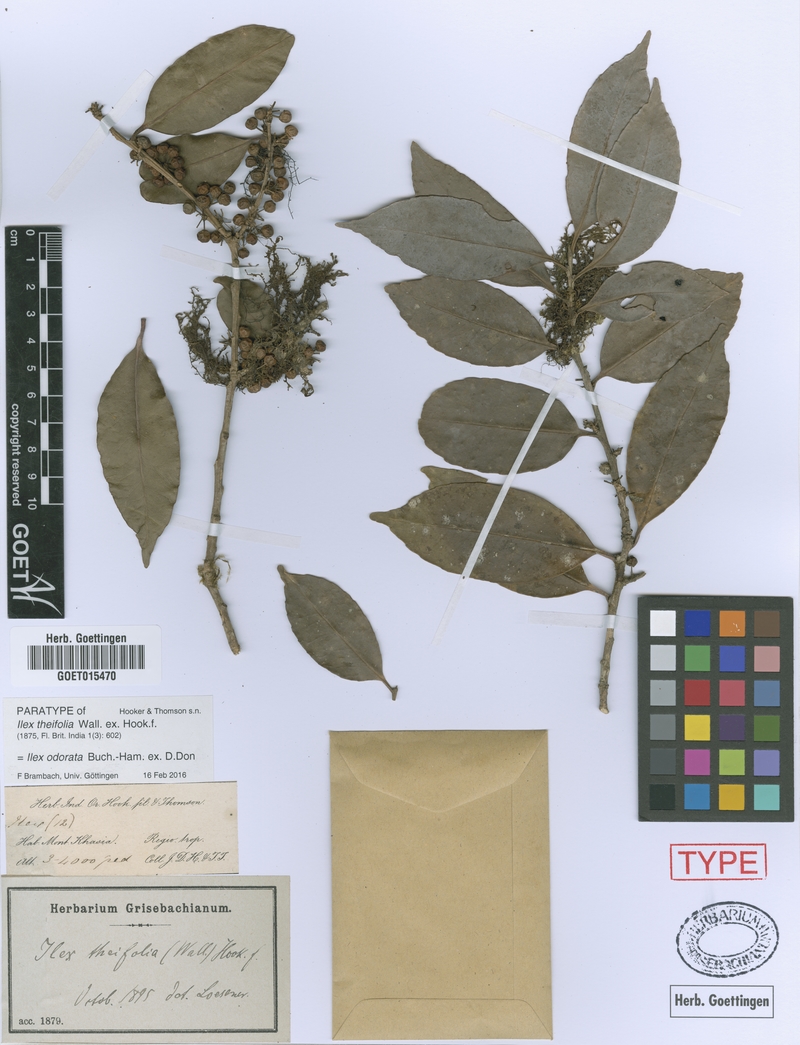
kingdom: Plantae
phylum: Tracheophyta
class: Magnoliopsida
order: Aquifoliales
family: Aquifoliaceae
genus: Ilex
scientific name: Ilex odorata
